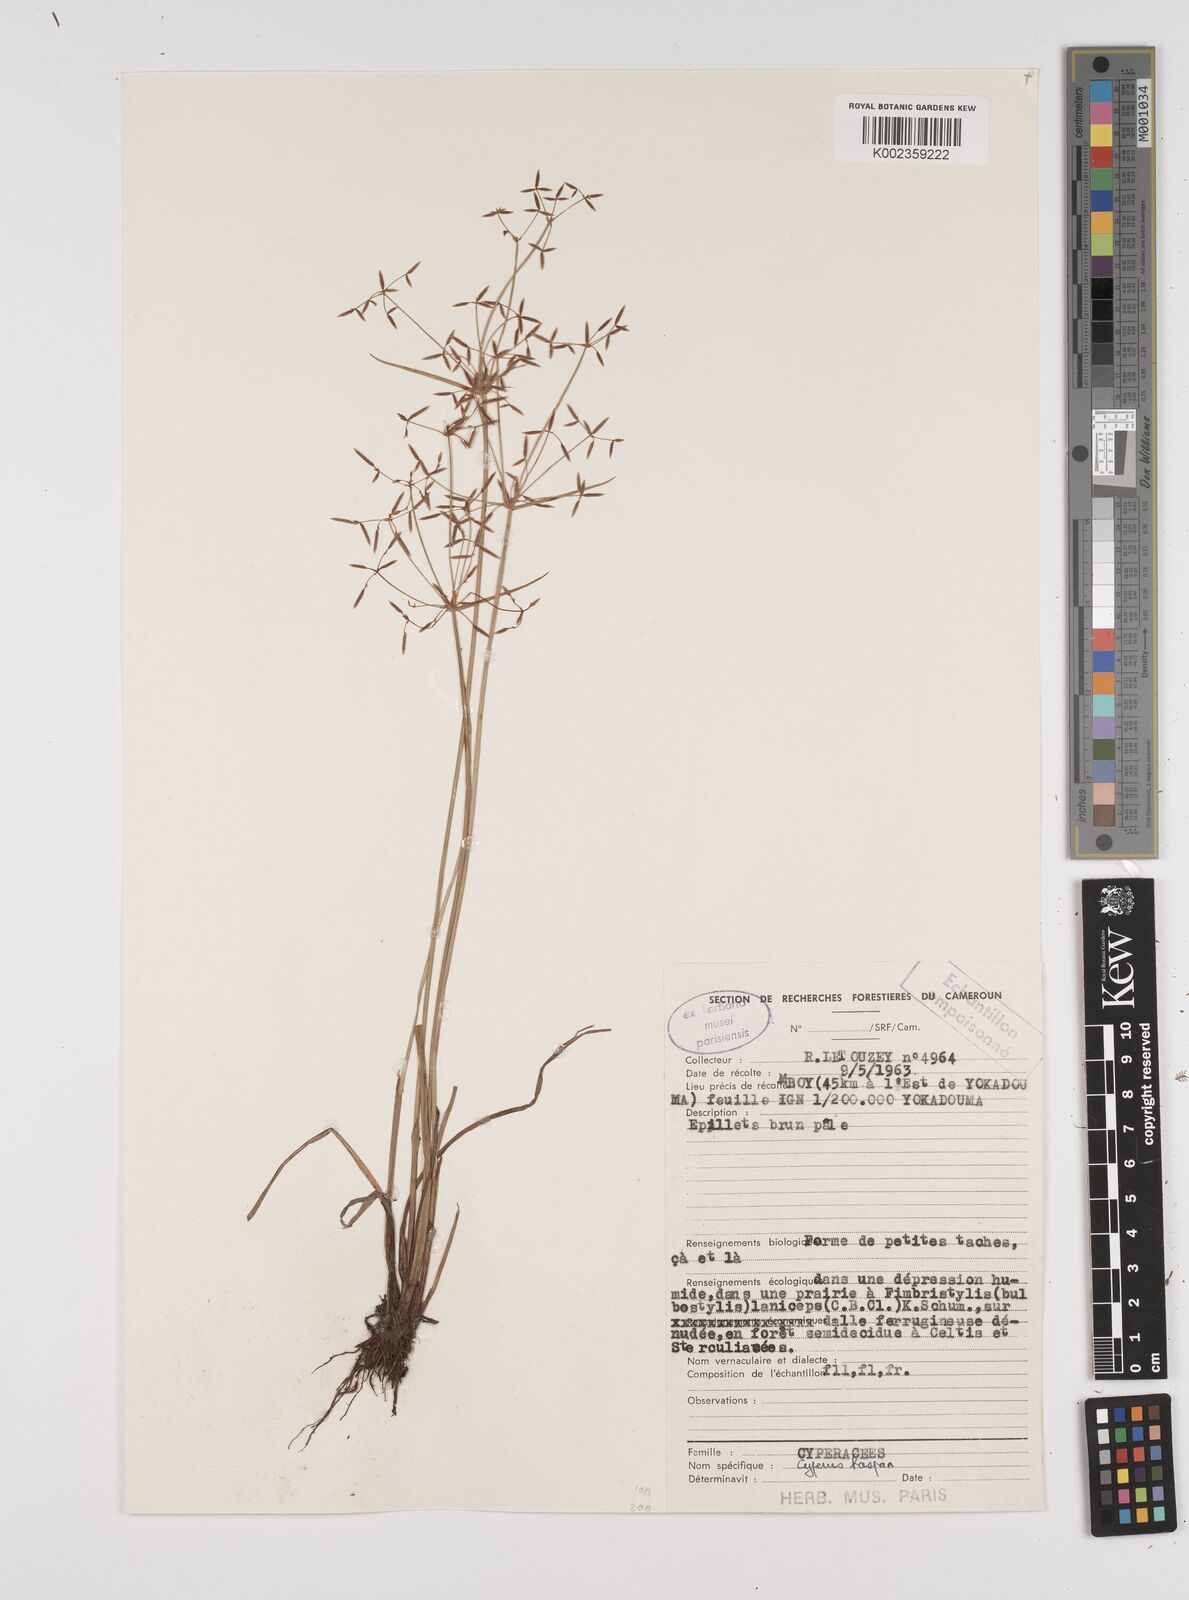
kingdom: Plantae
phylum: Tracheophyta
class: Liliopsida
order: Poales
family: Cyperaceae
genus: Cyperus
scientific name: Cyperus haspan
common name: Haspan flatsedge
